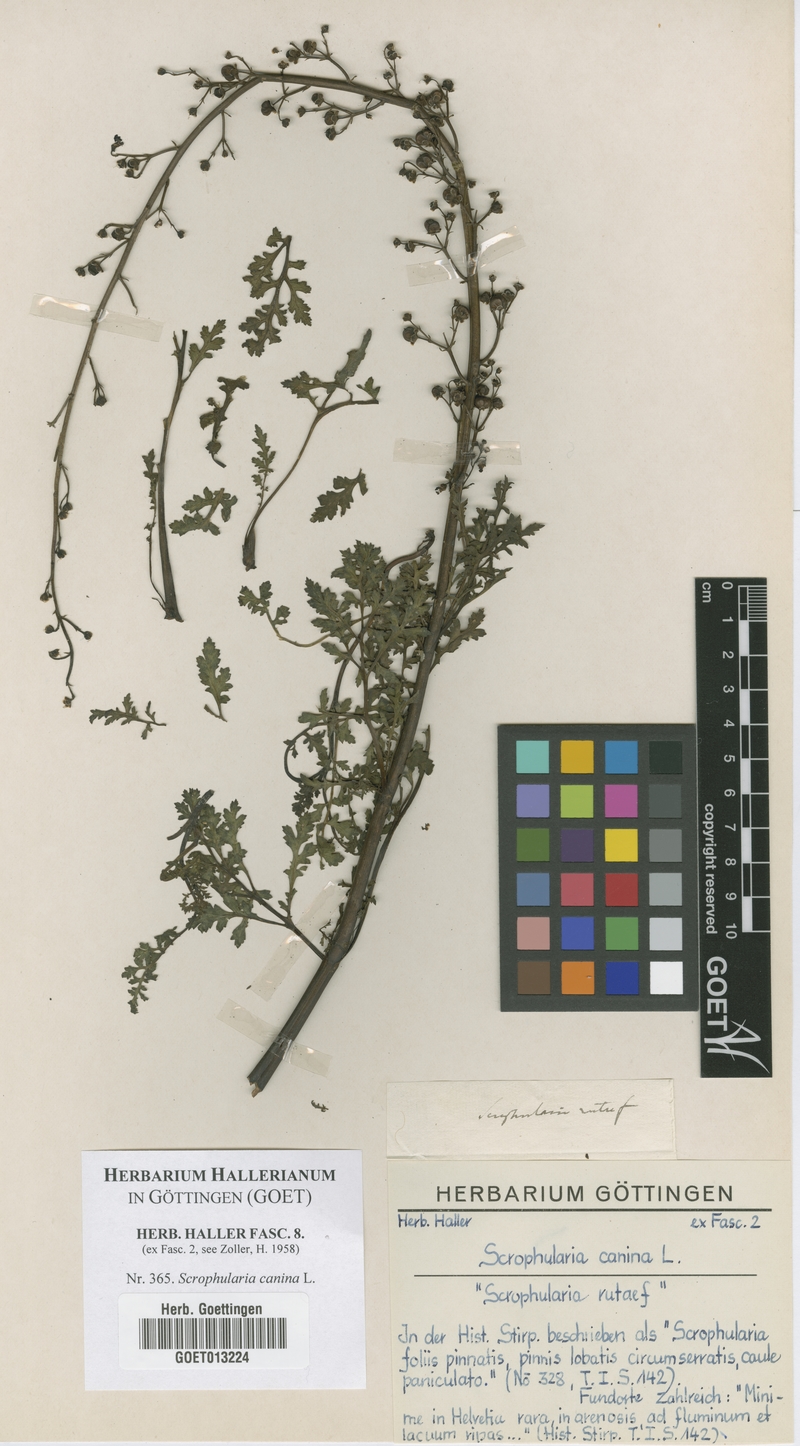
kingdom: Plantae
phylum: Tracheophyta
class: Magnoliopsida
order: Lamiales
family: Scrophulariaceae
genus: Scrophularia
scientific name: Scrophularia canina
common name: French figwort
